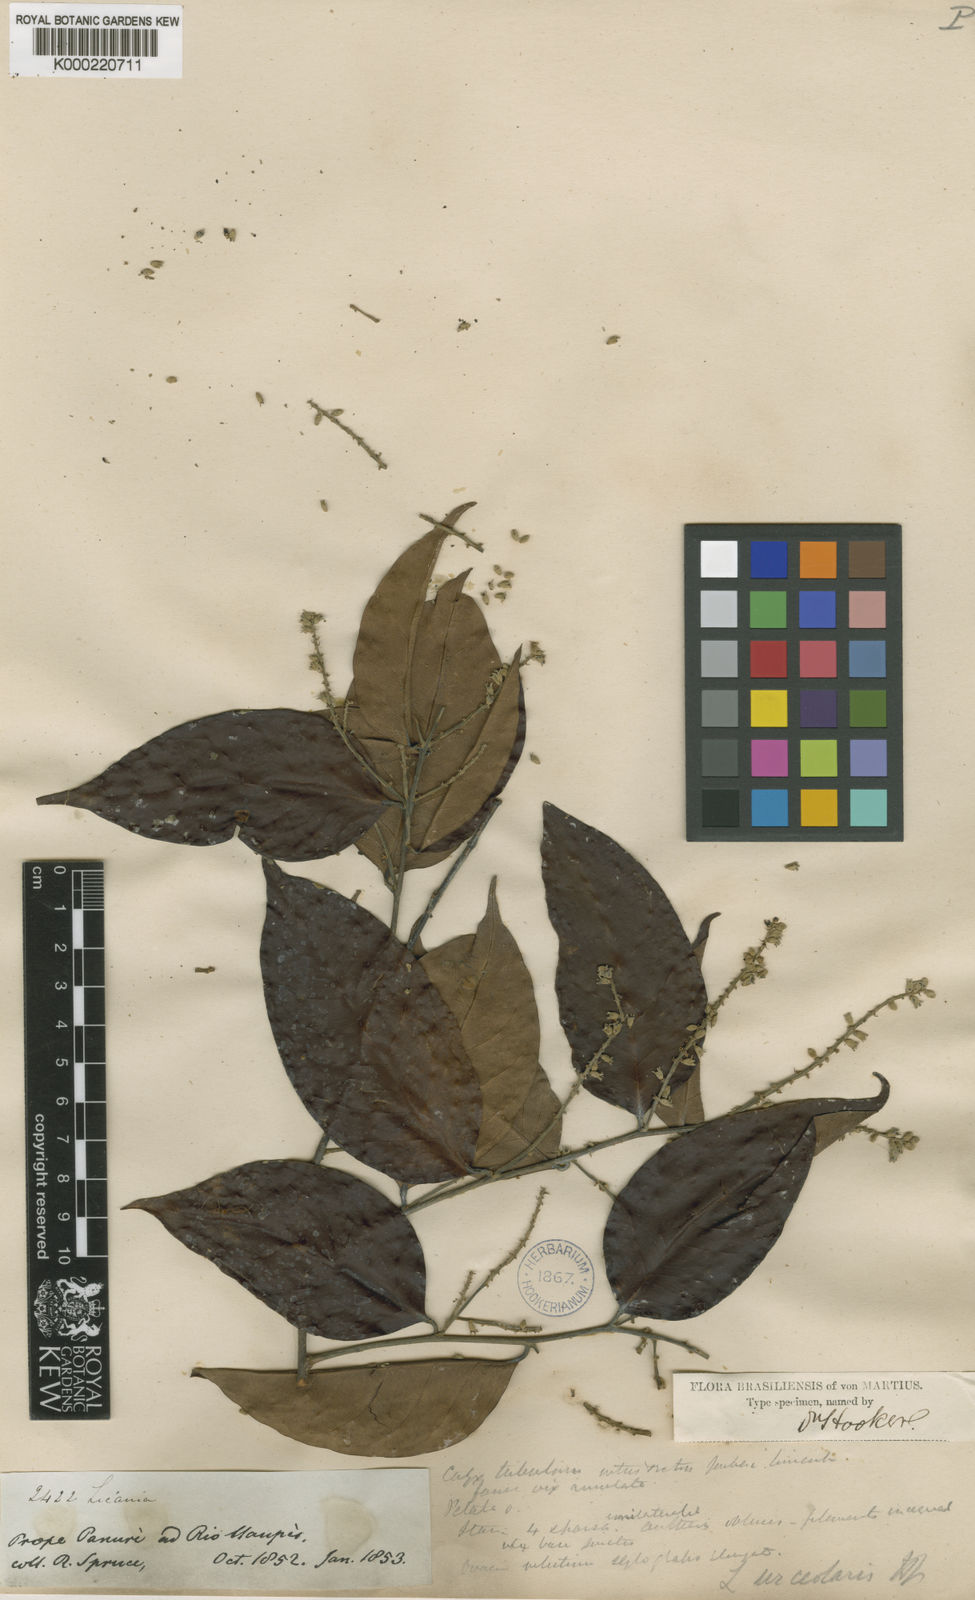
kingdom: Plantae
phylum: Tracheophyta
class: Magnoliopsida
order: Malpighiales
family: Chrysobalanaceae
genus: Licania
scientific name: Licania urceolaris
